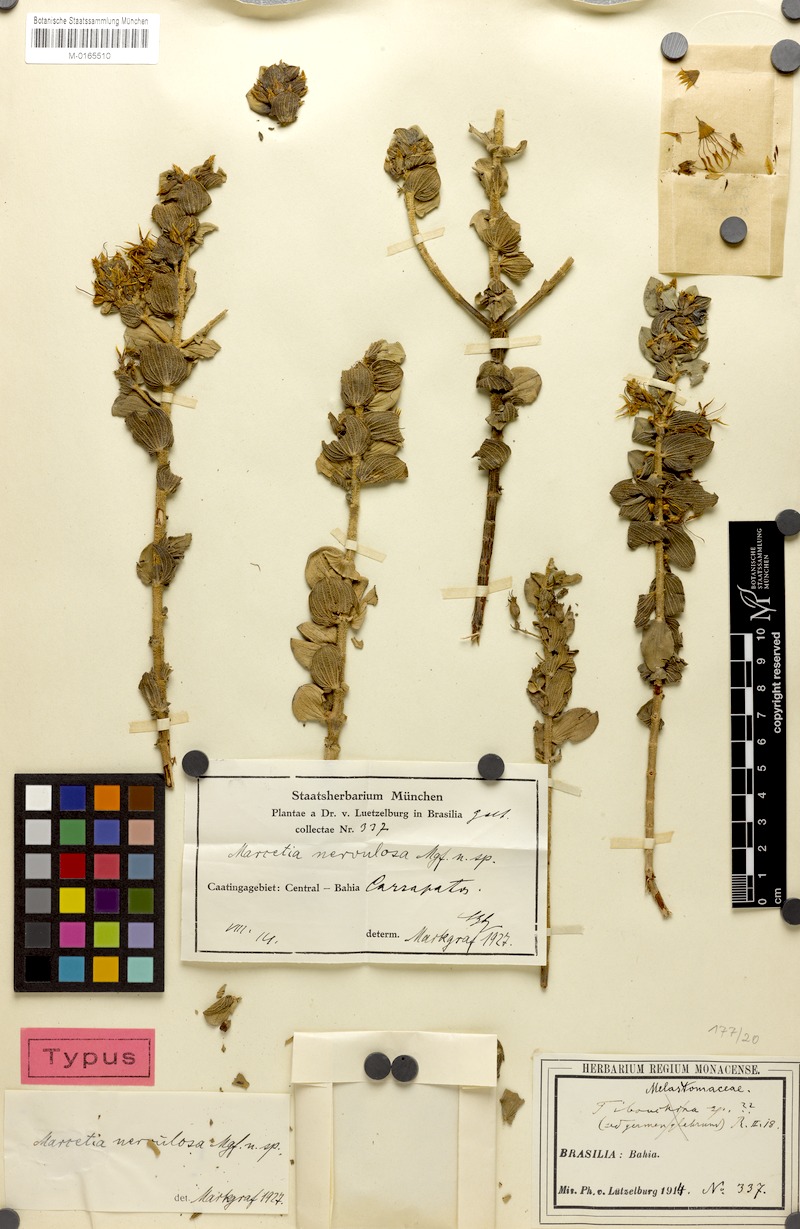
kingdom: Plantae
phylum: Tracheophyta
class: Magnoliopsida
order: Myrtales
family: Melastomataceae
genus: Marcetia
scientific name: Marcetia nervulosa
